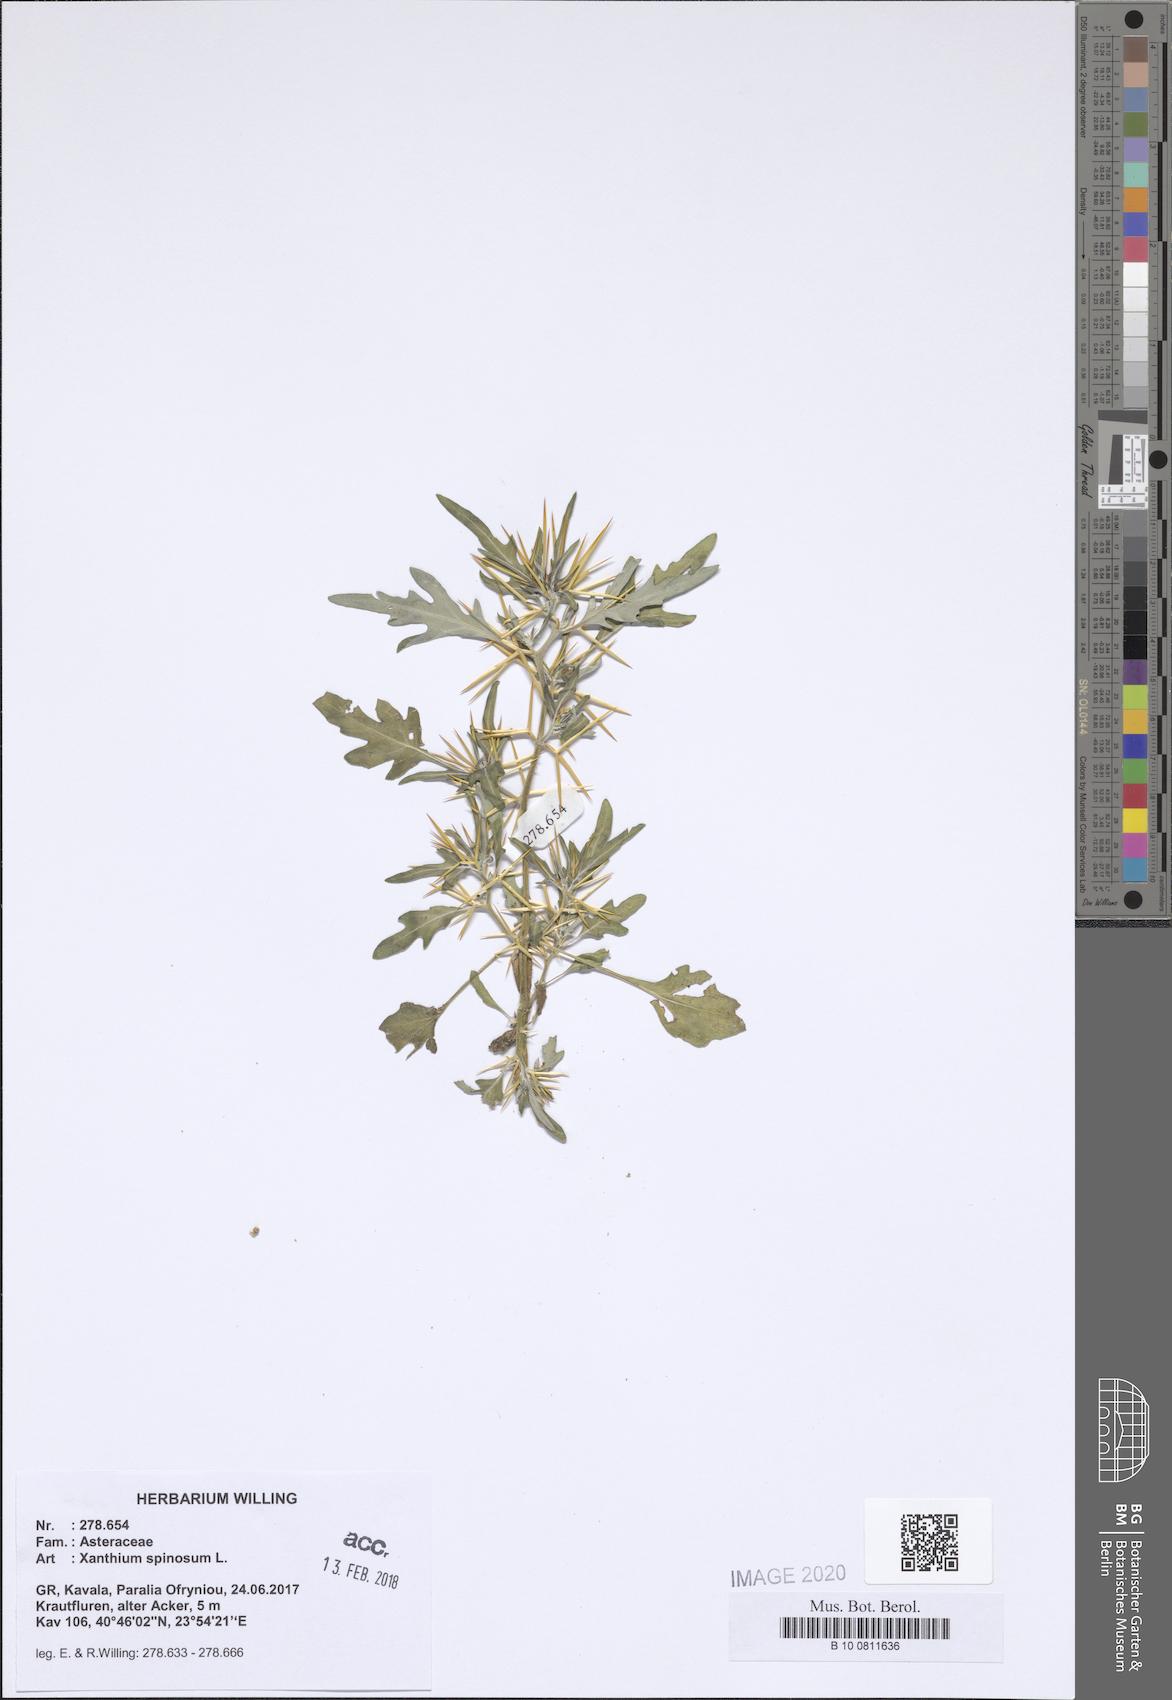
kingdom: Plantae
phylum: Tracheophyta
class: Magnoliopsida
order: Asterales
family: Asteraceae
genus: Xanthium
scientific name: Xanthium spinosum
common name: Spiny cocklebur
